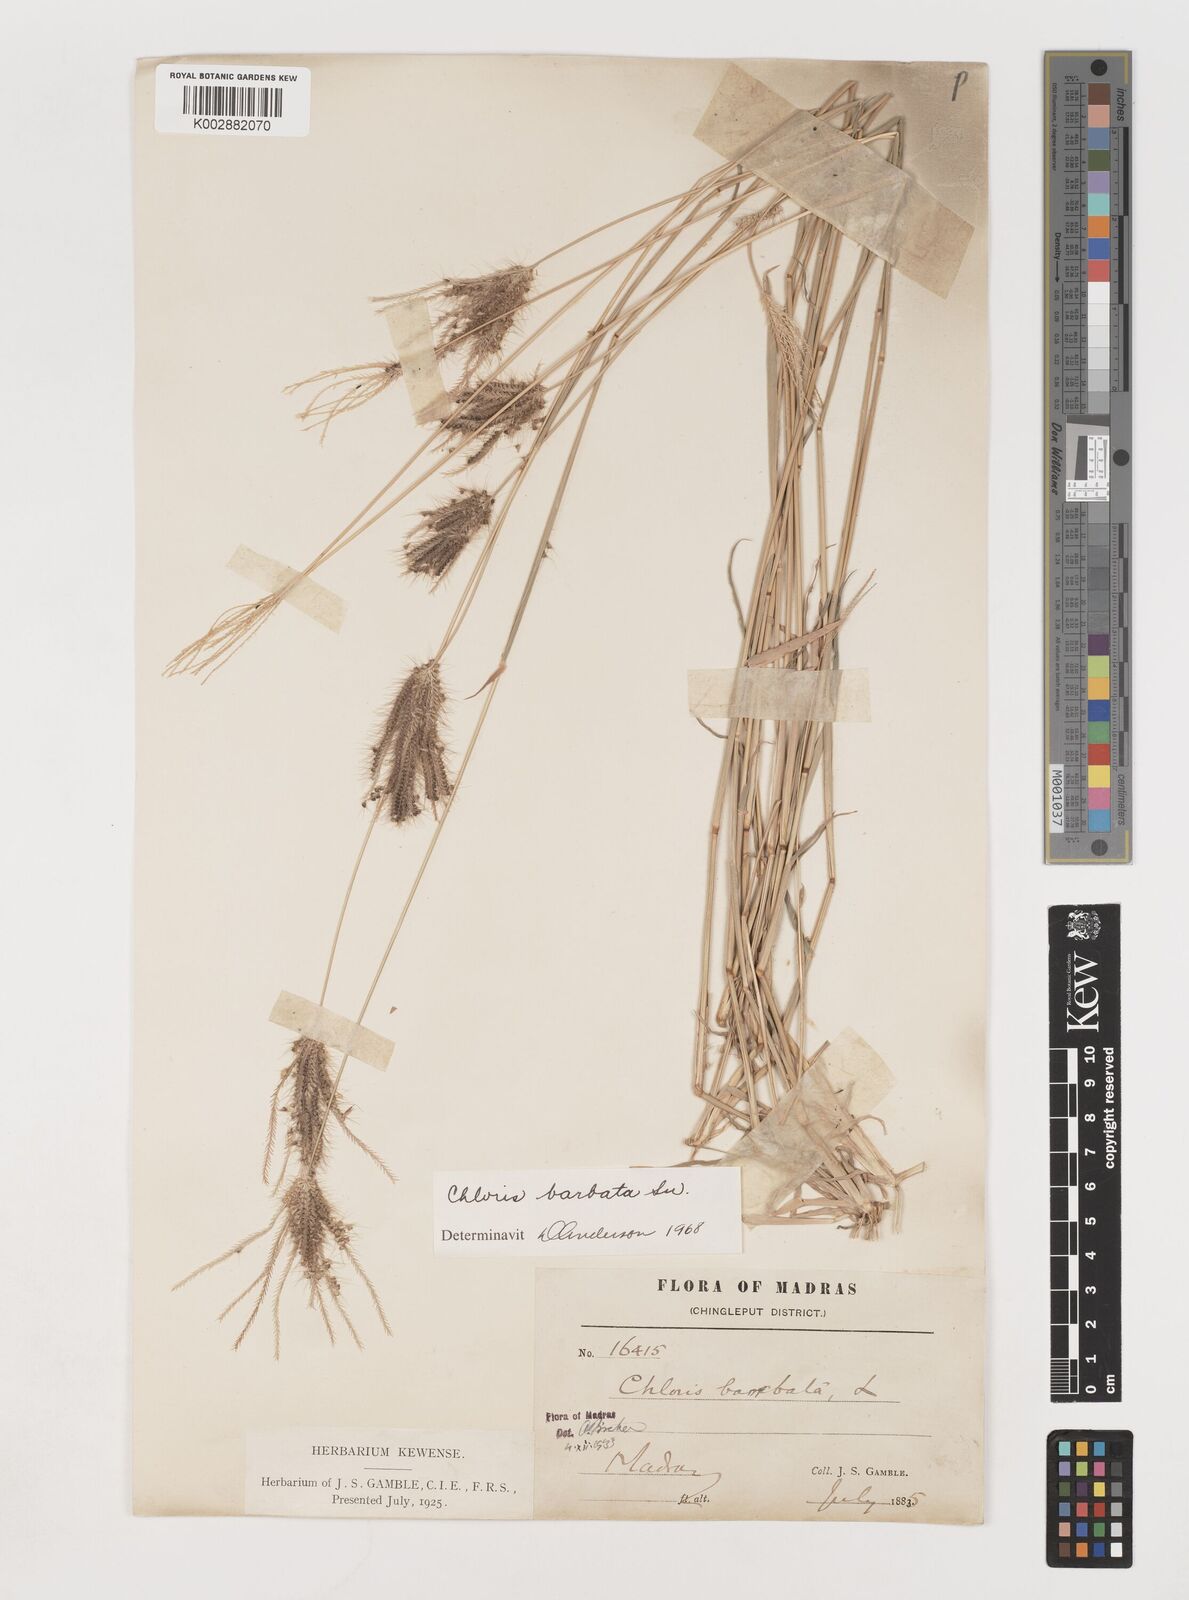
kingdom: Plantae
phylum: Tracheophyta
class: Liliopsida
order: Poales
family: Poaceae
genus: Chloris
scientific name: Chloris barbata
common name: Swollen fingergrass
